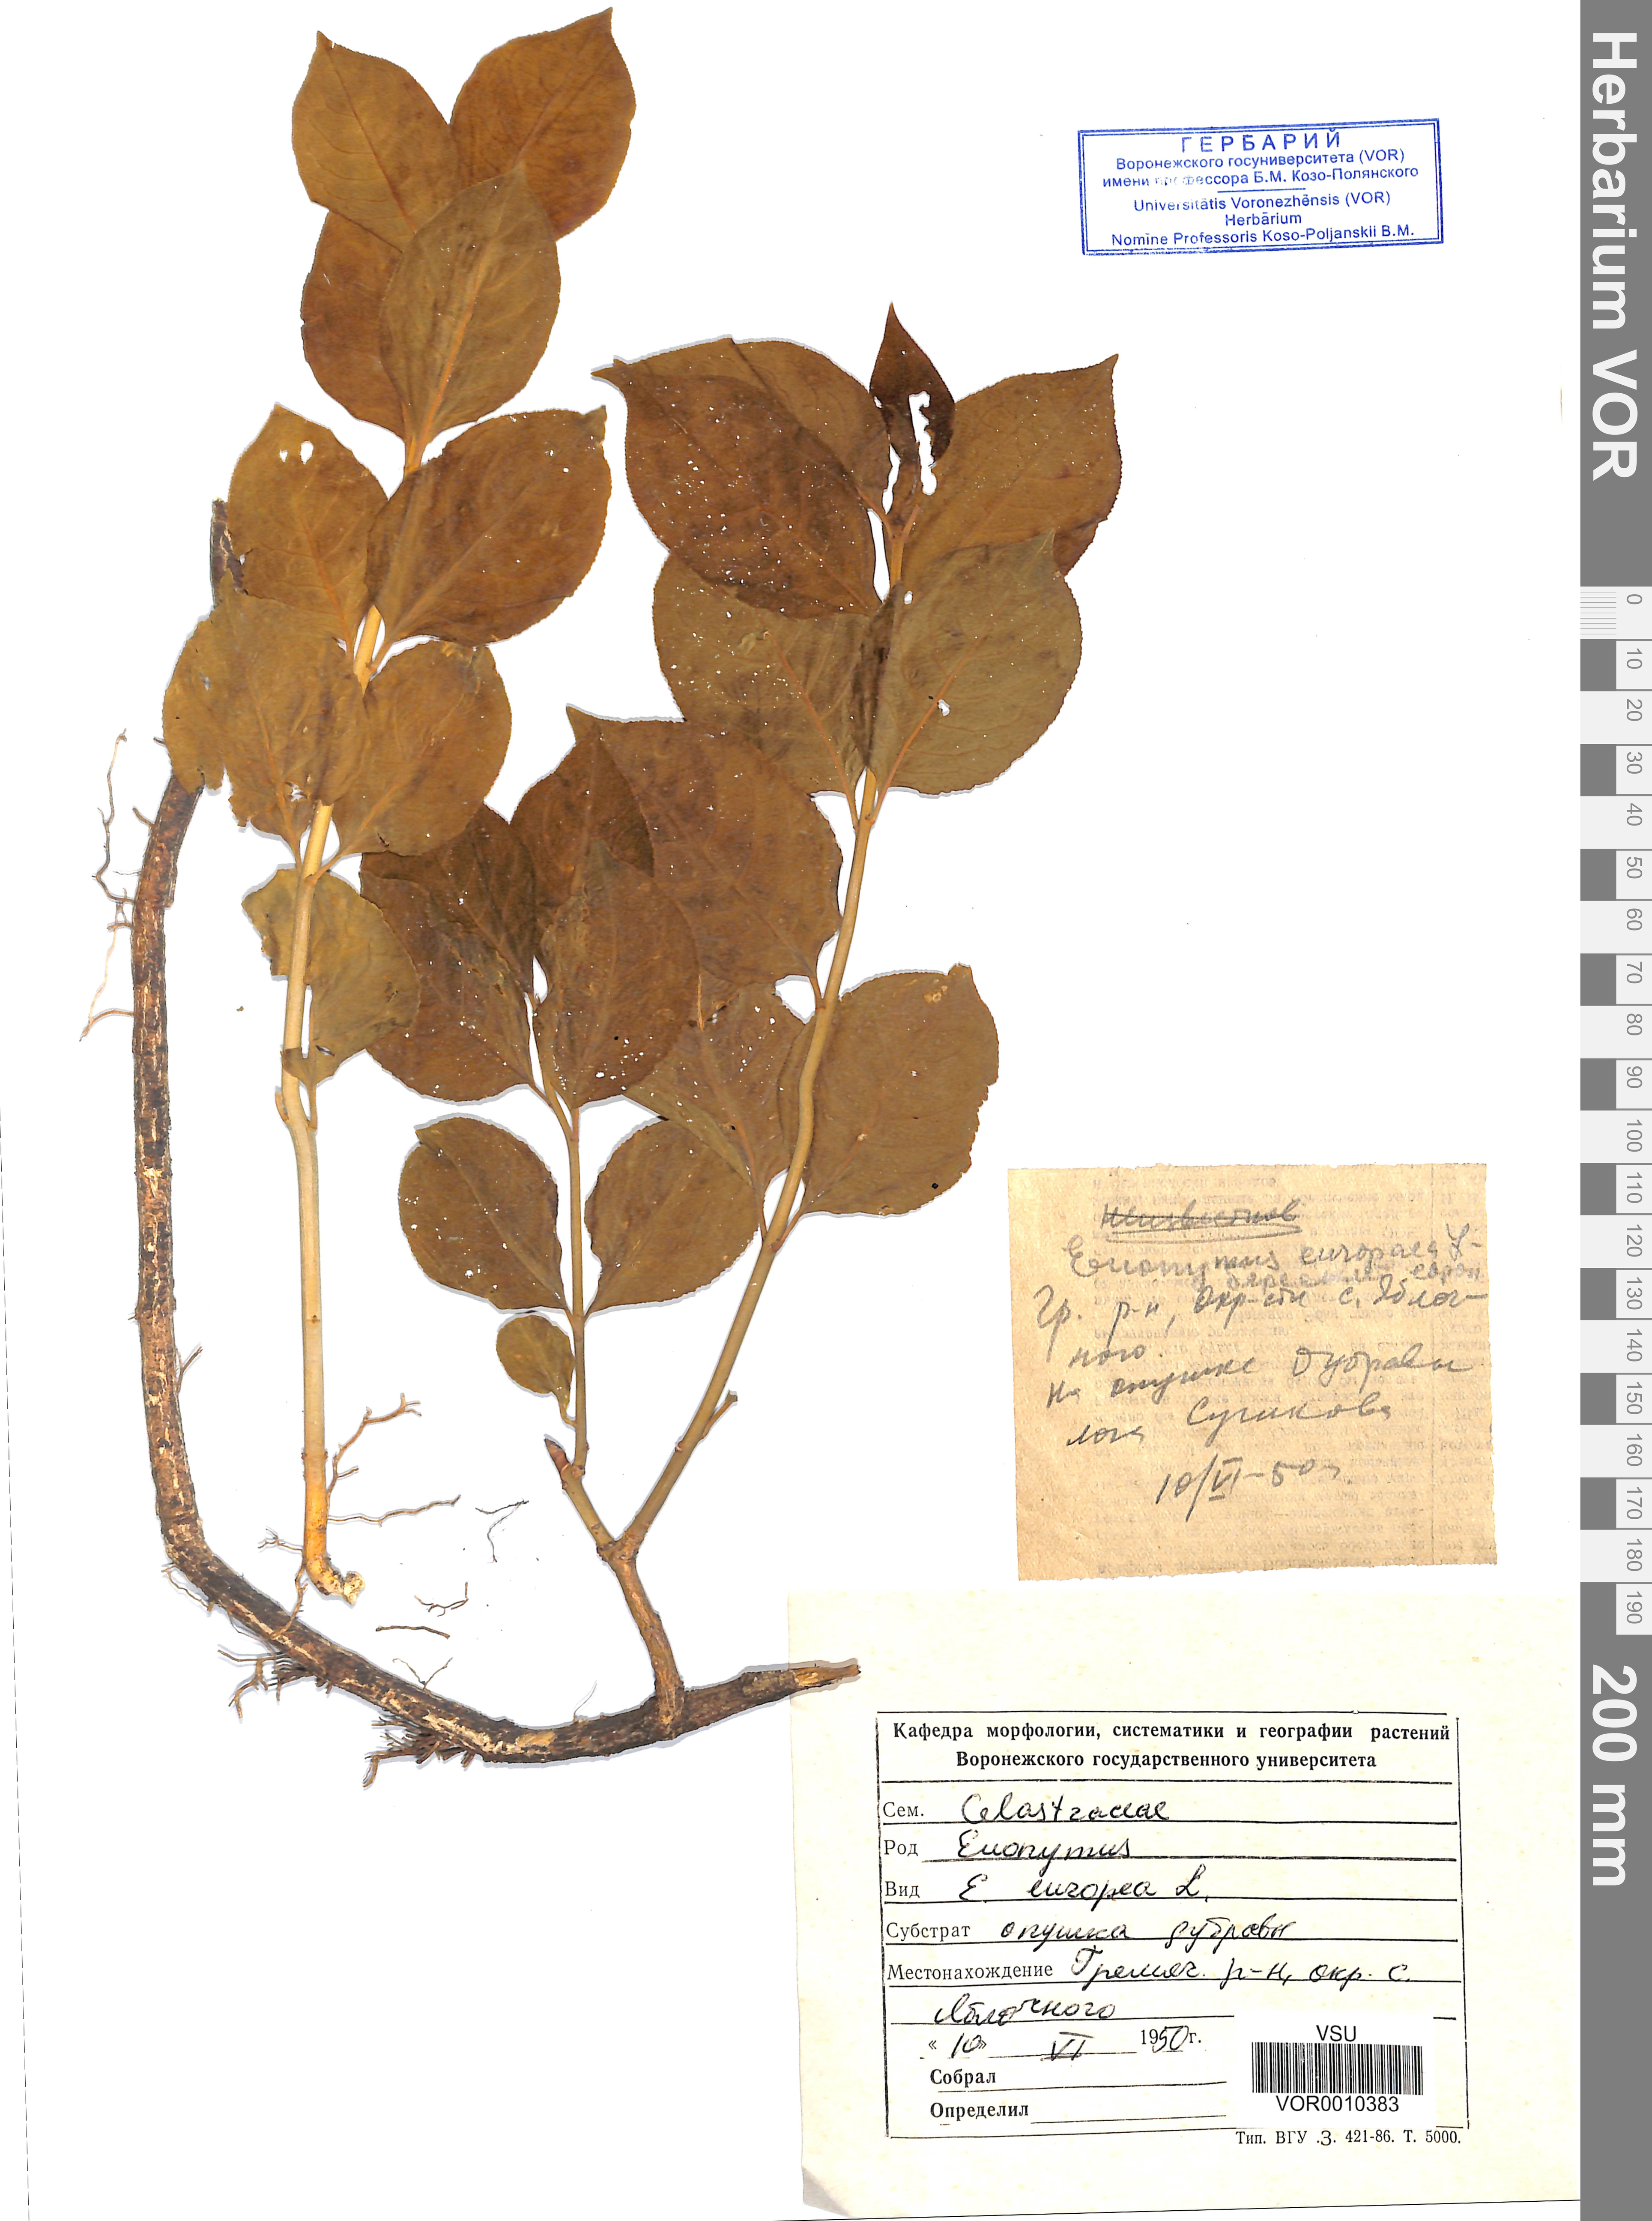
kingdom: Plantae
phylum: Tracheophyta
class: Magnoliopsida
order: Celastrales
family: Celastraceae
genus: Euonymus
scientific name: Euonymus europaeus
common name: Spindle
